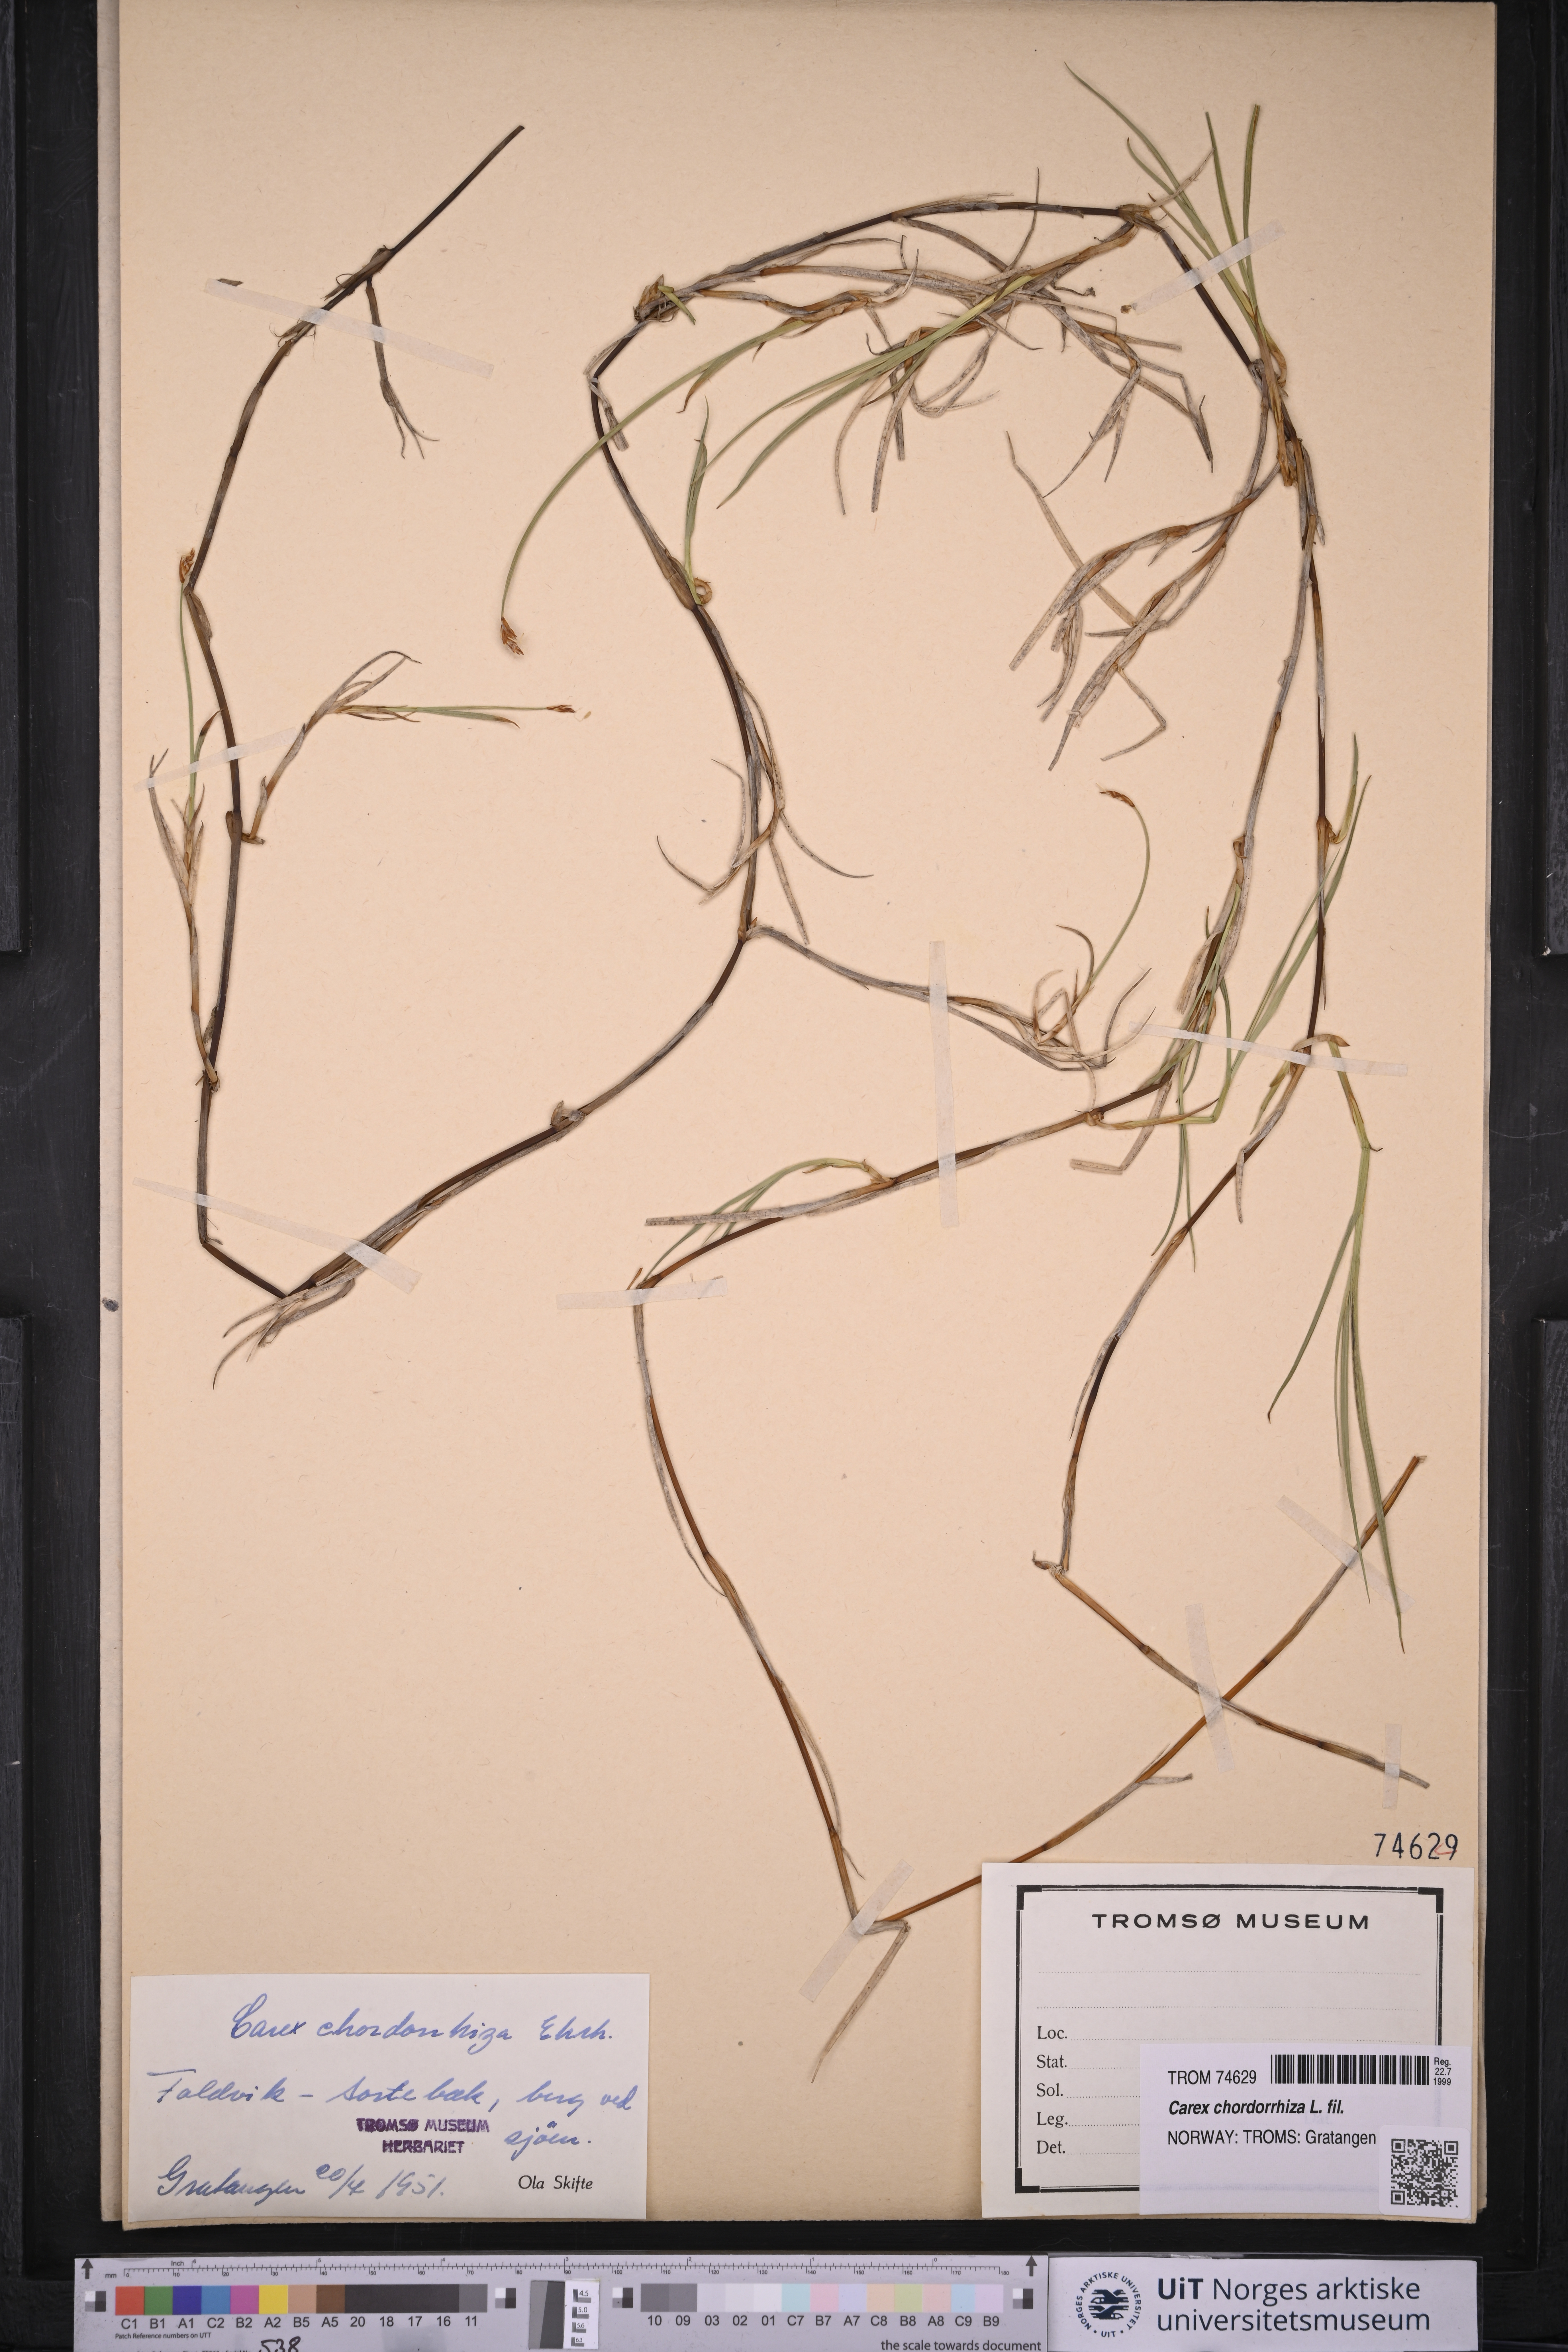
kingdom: Plantae
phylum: Tracheophyta
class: Liliopsida
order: Poales
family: Cyperaceae
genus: Carex
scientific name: Carex chordorrhiza
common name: String sedge
